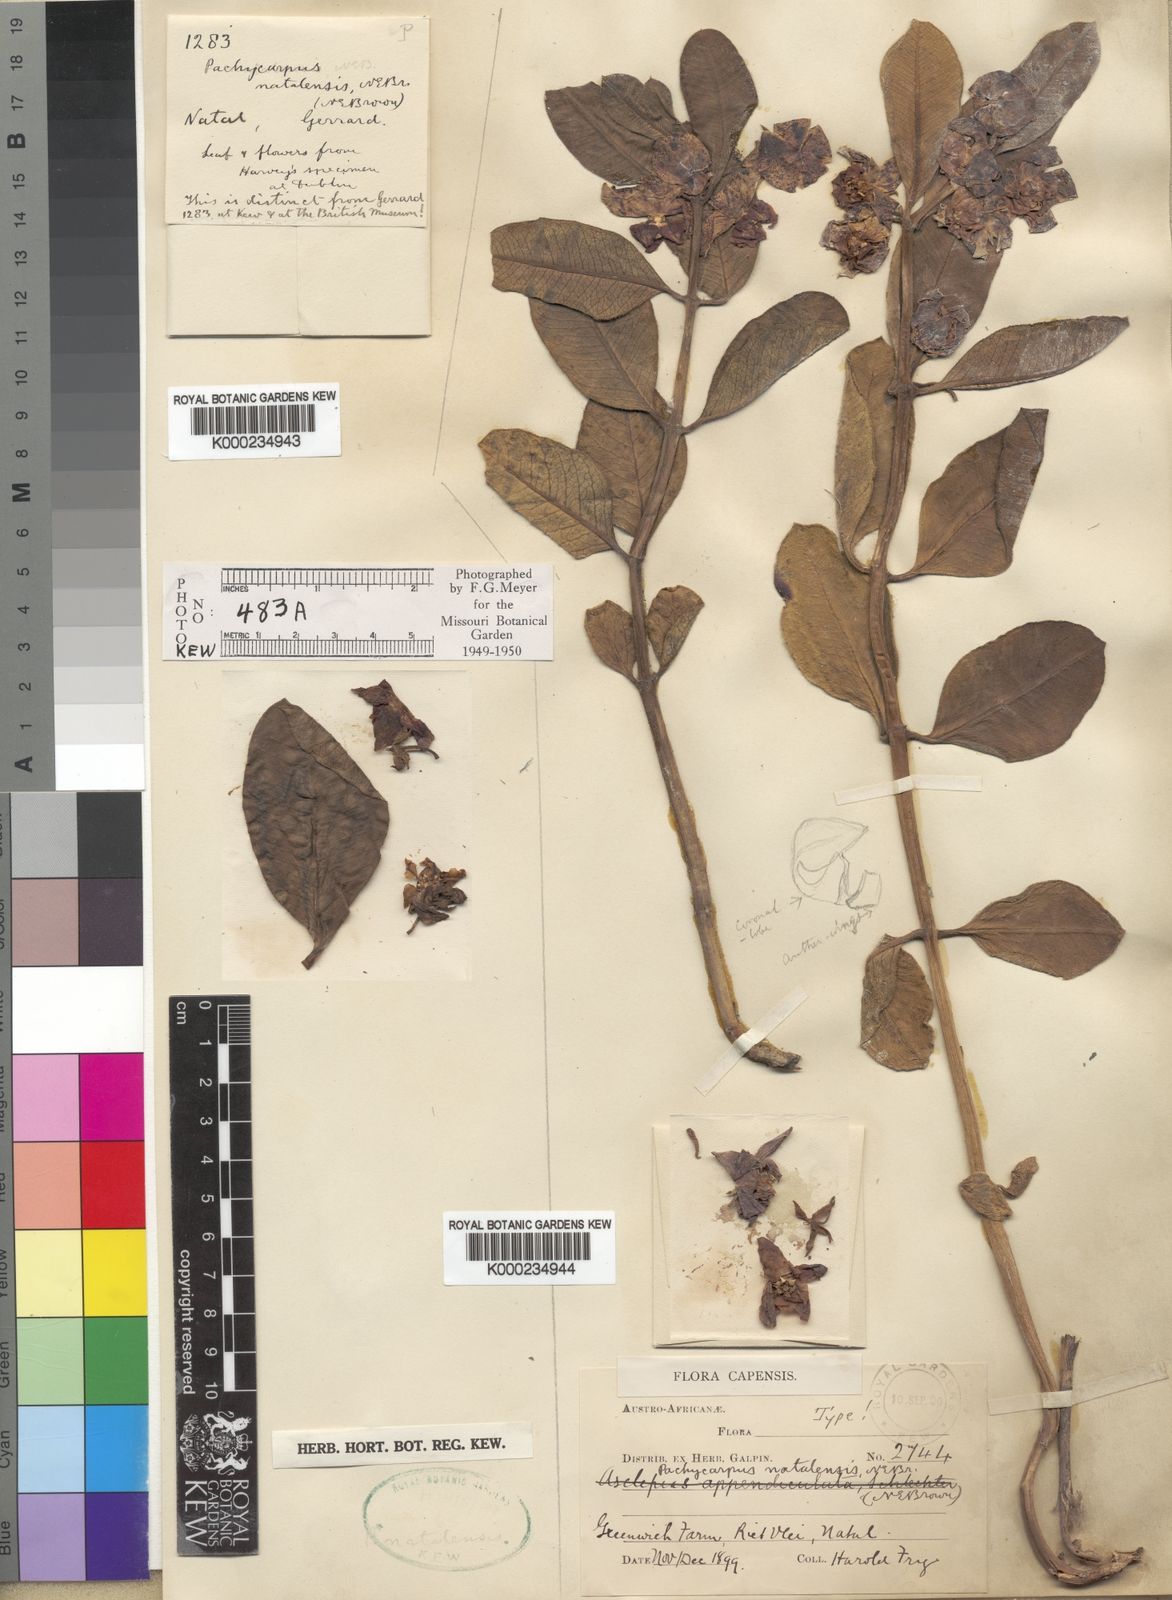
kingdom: Plantae
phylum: Tracheophyta
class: Magnoliopsida
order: Gentianales
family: Apocynaceae
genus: Pachycarpus
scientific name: Pachycarpus natalensis
